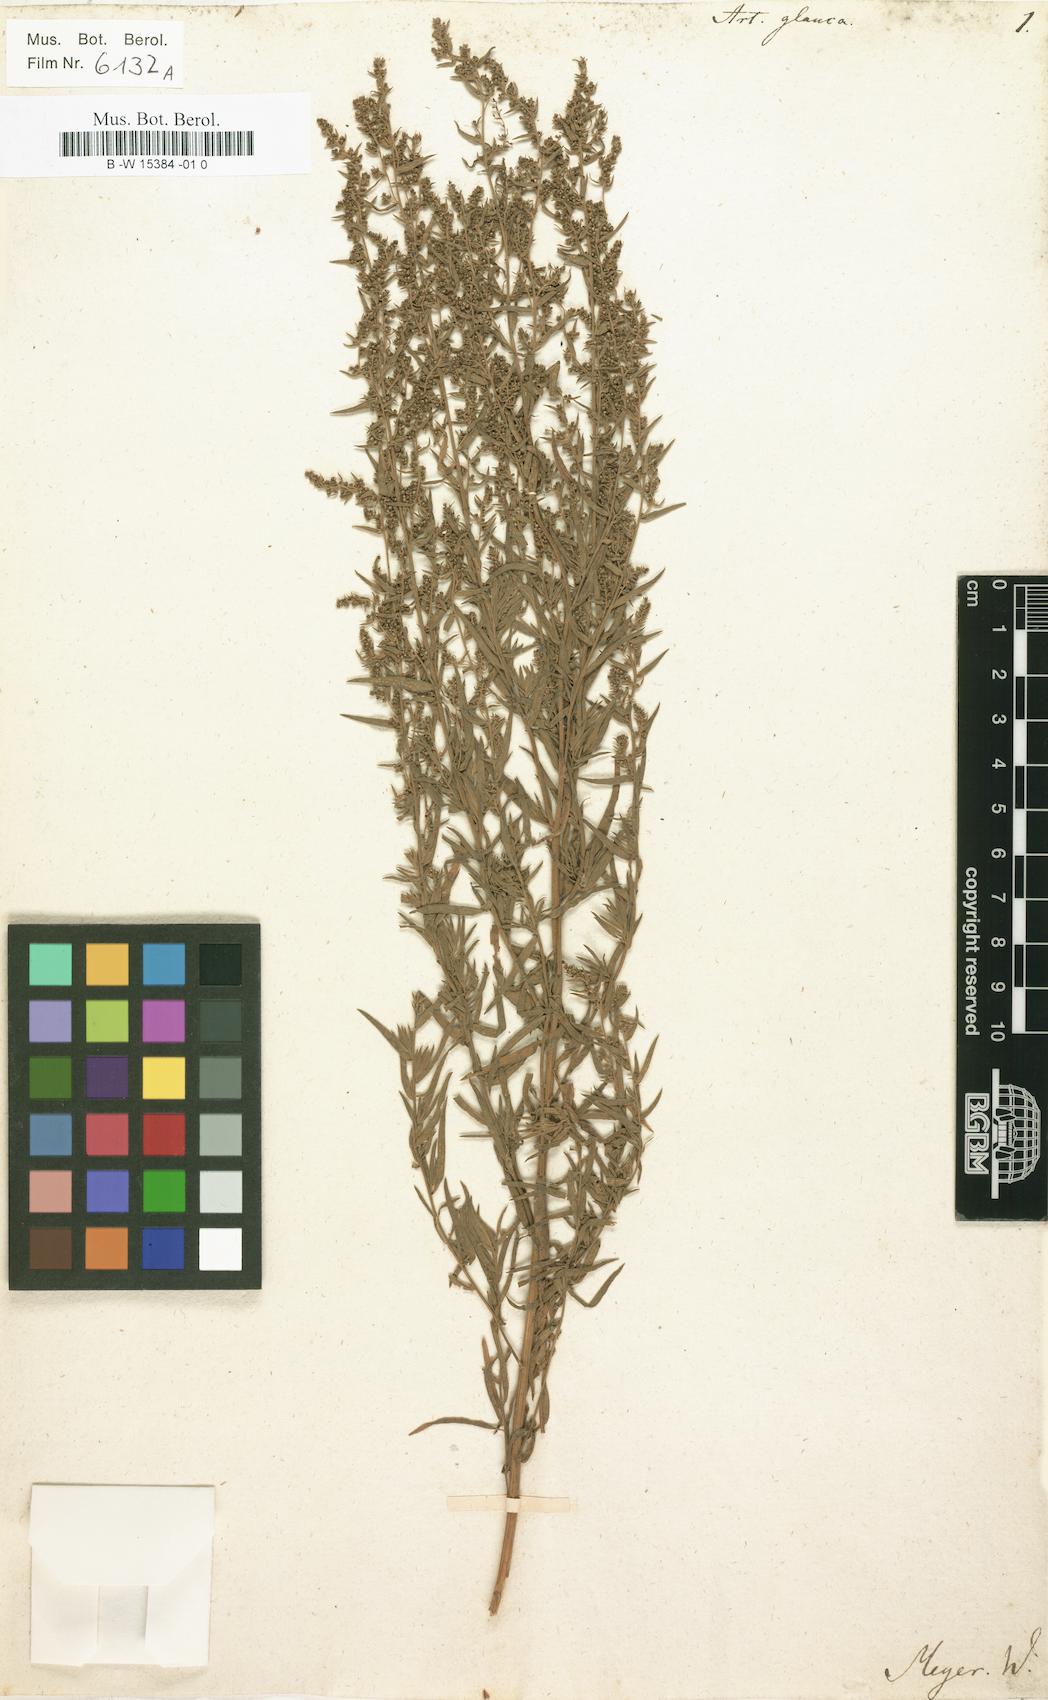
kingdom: Plantae
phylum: Tracheophyta
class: Magnoliopsida
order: Asterales
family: Asteraceae
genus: Artemisia
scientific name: Artemisia glauca
